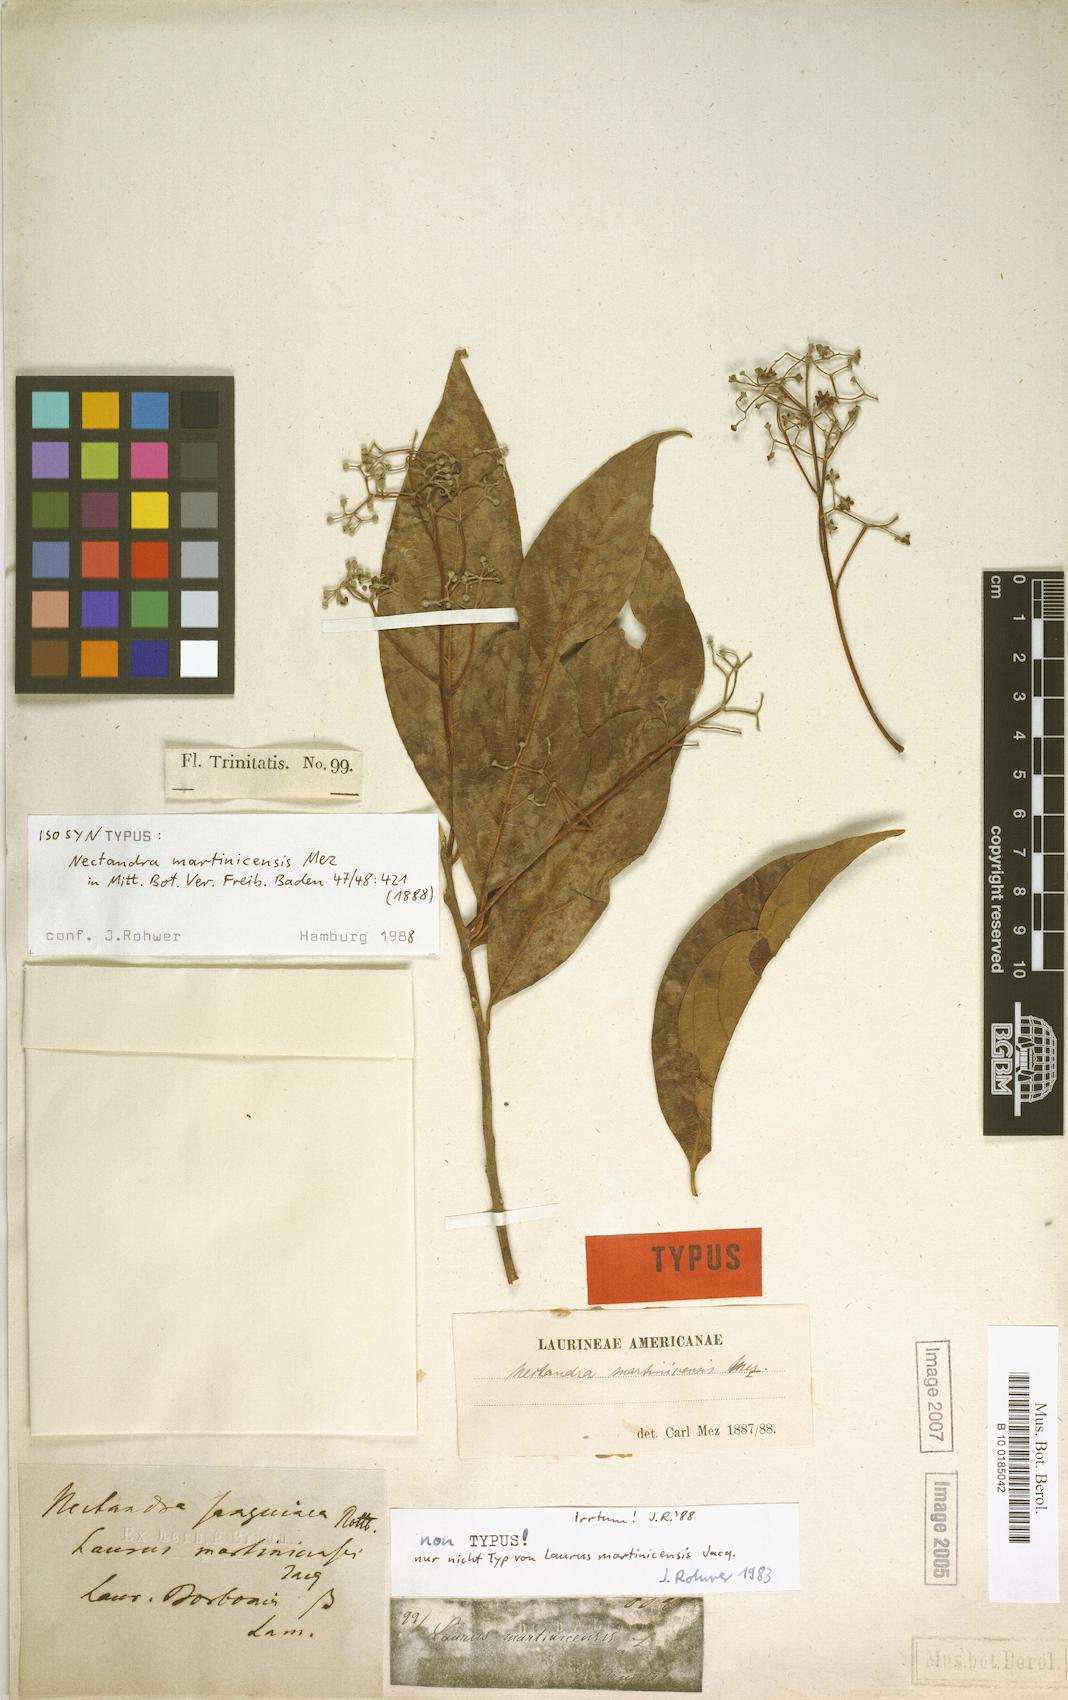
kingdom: Plantae
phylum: Tracheophyta
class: Magnoliopsida
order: Laurales
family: Lauraceae
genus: Damburneya
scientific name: Damburneya martinicensis
